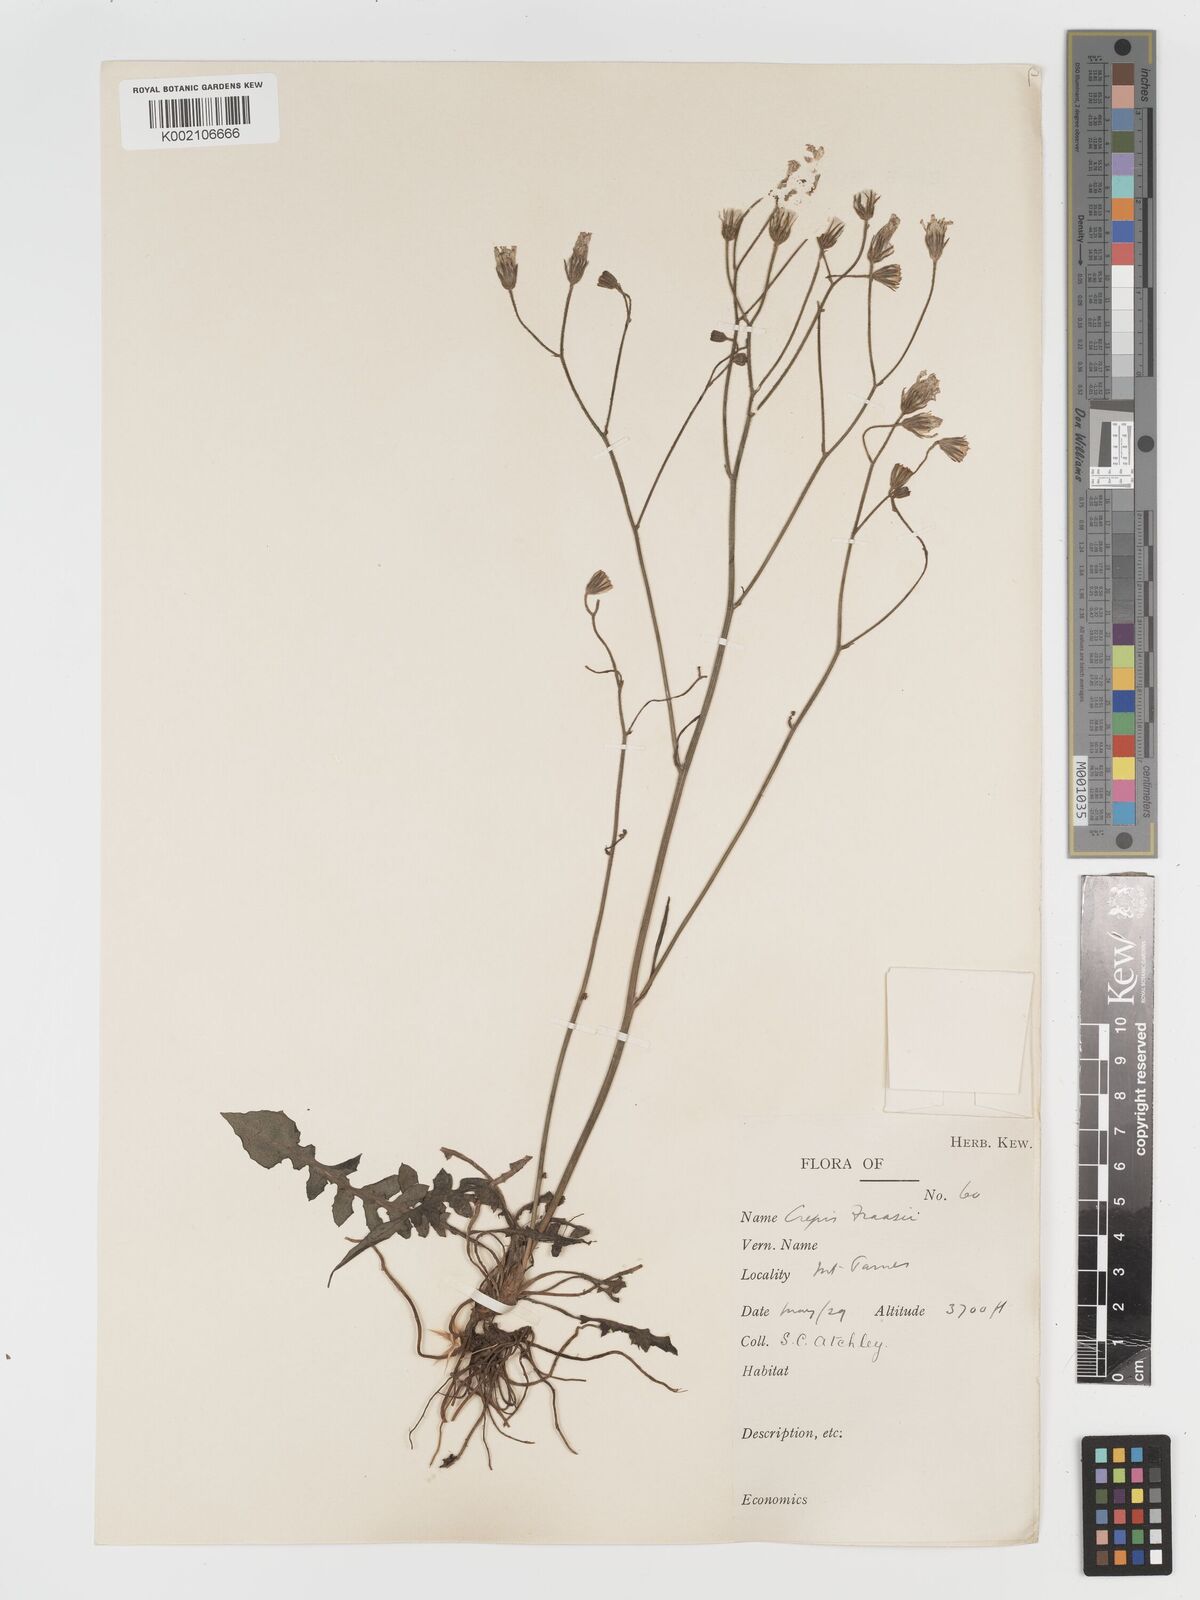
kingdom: Plantae
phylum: Tracheophyta
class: Magnoliopsida
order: Asterales
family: Asteraceae
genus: Crepis
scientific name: Crepis
